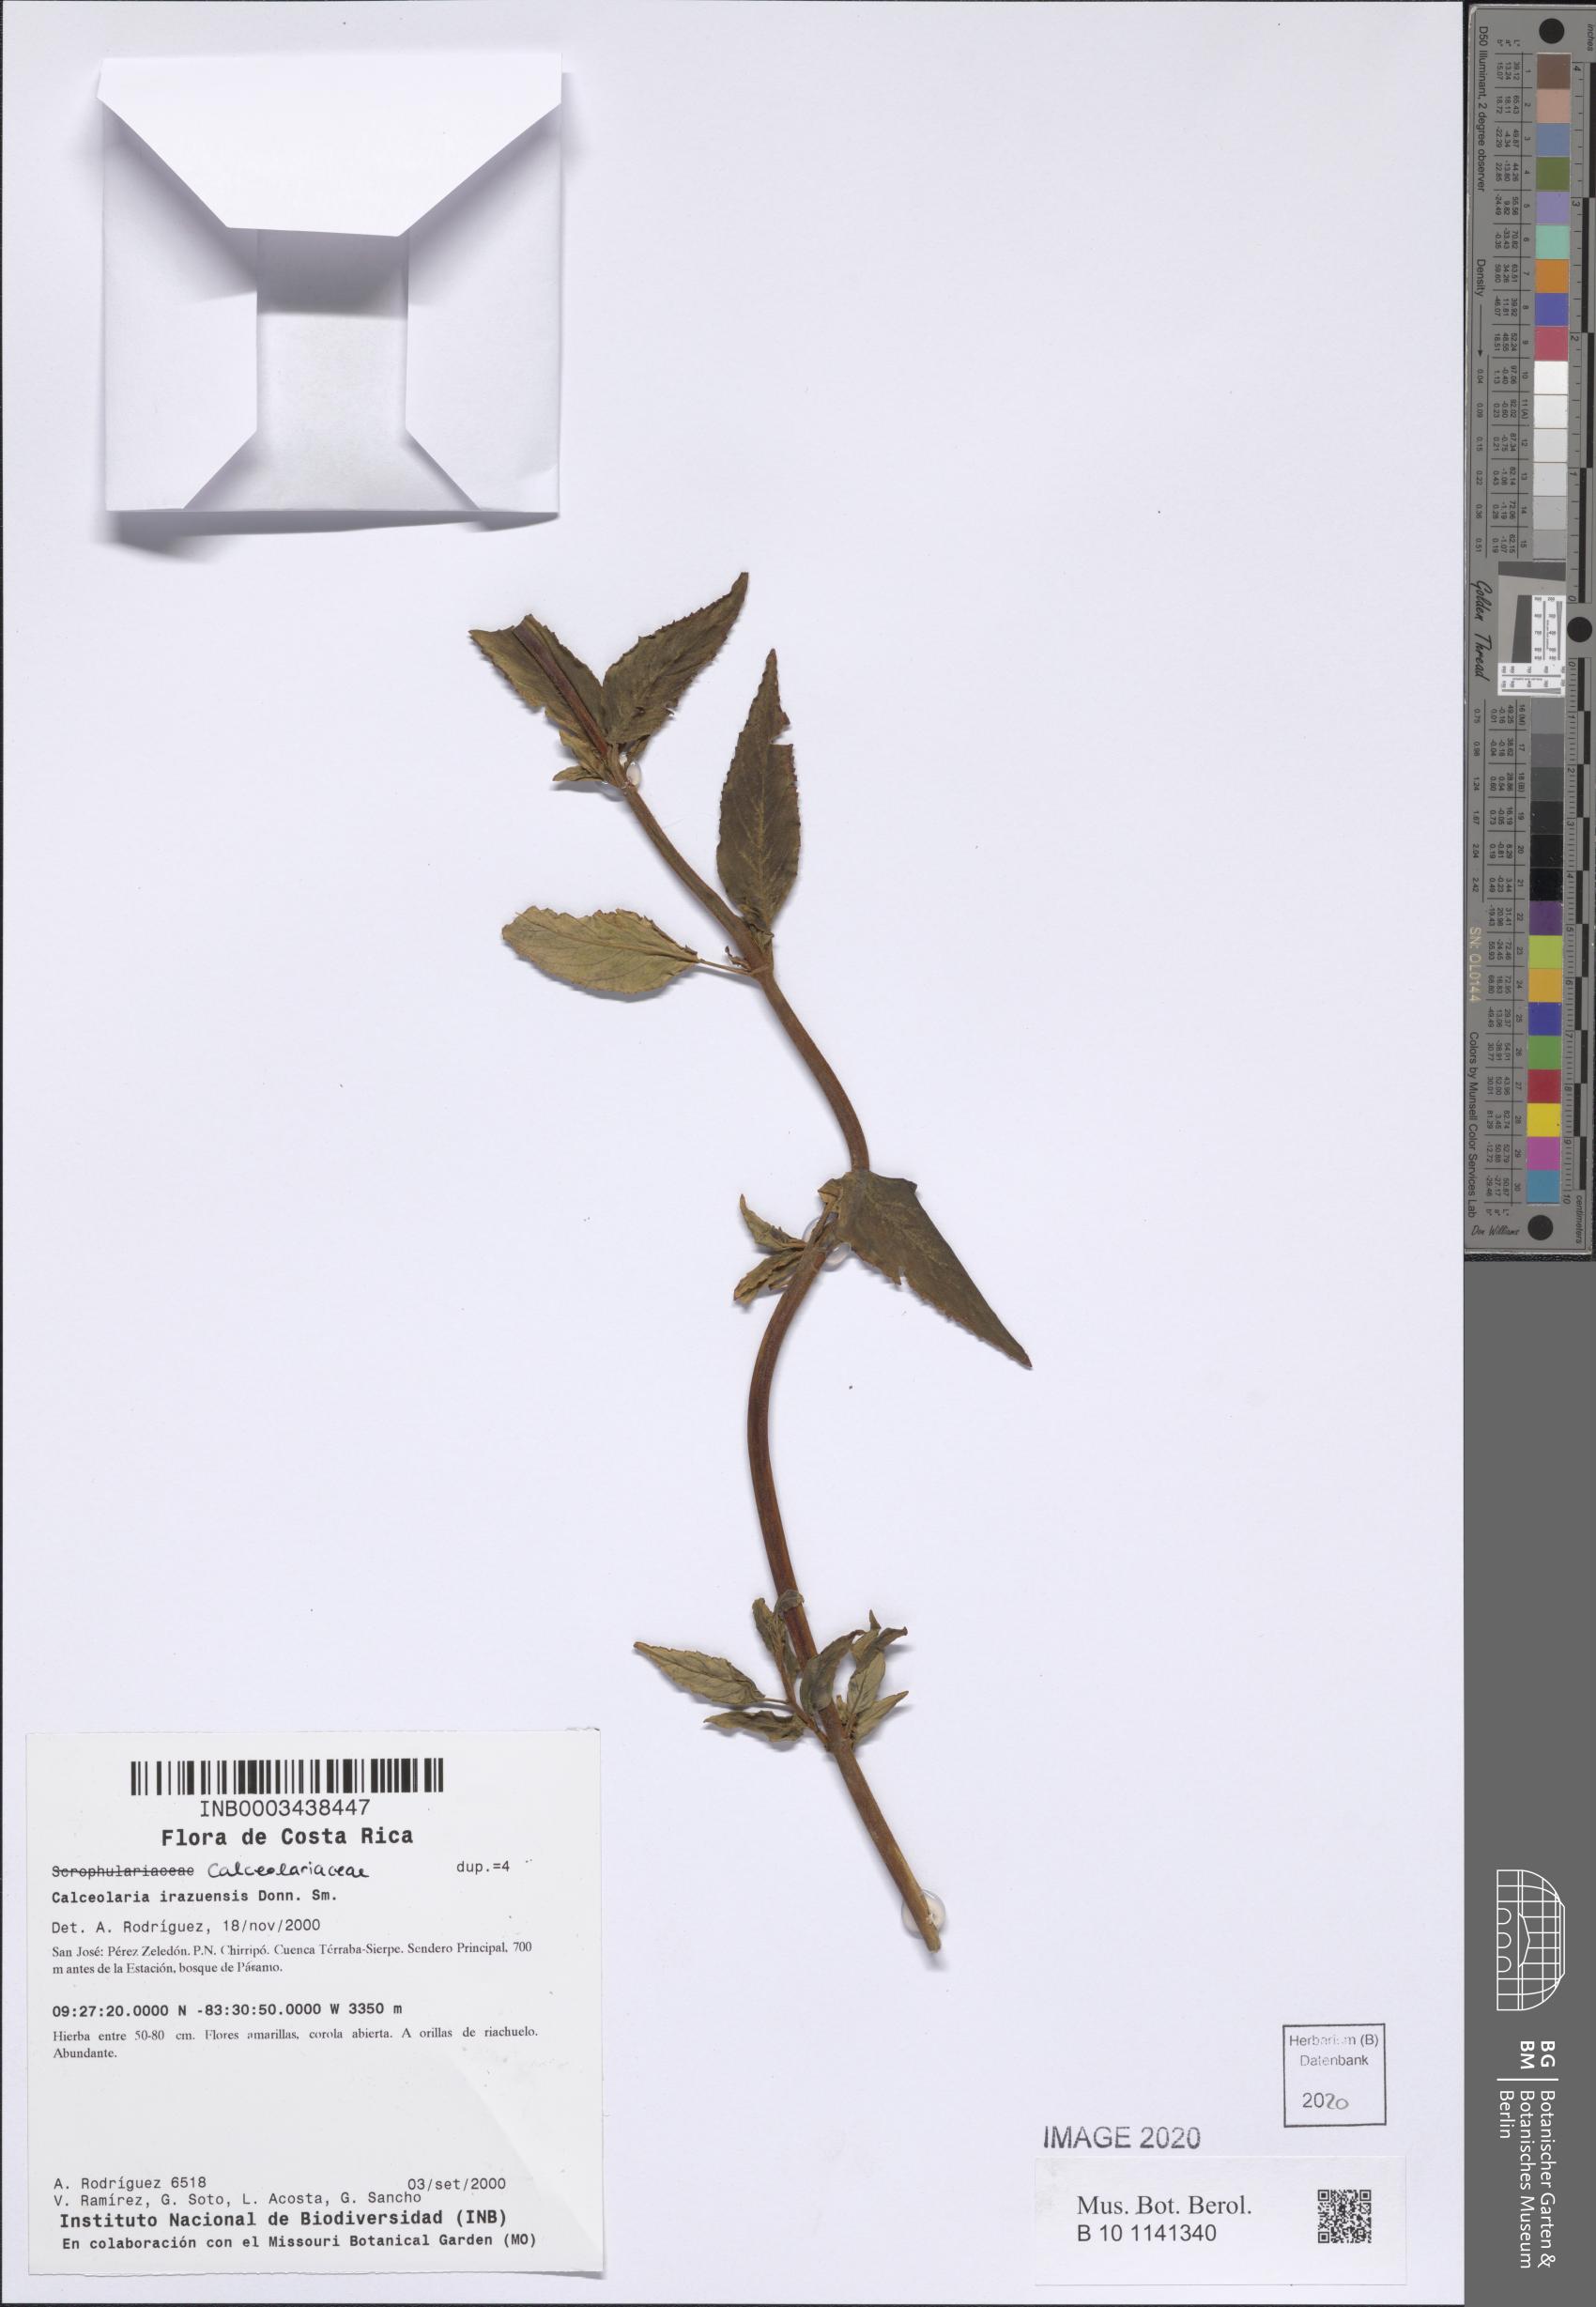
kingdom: Plantae
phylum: Tracheophyta
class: Magnoliopsida
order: Lamiales
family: Calceolariaceae
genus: Calceolaria
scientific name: Calceolaria irazuensis
